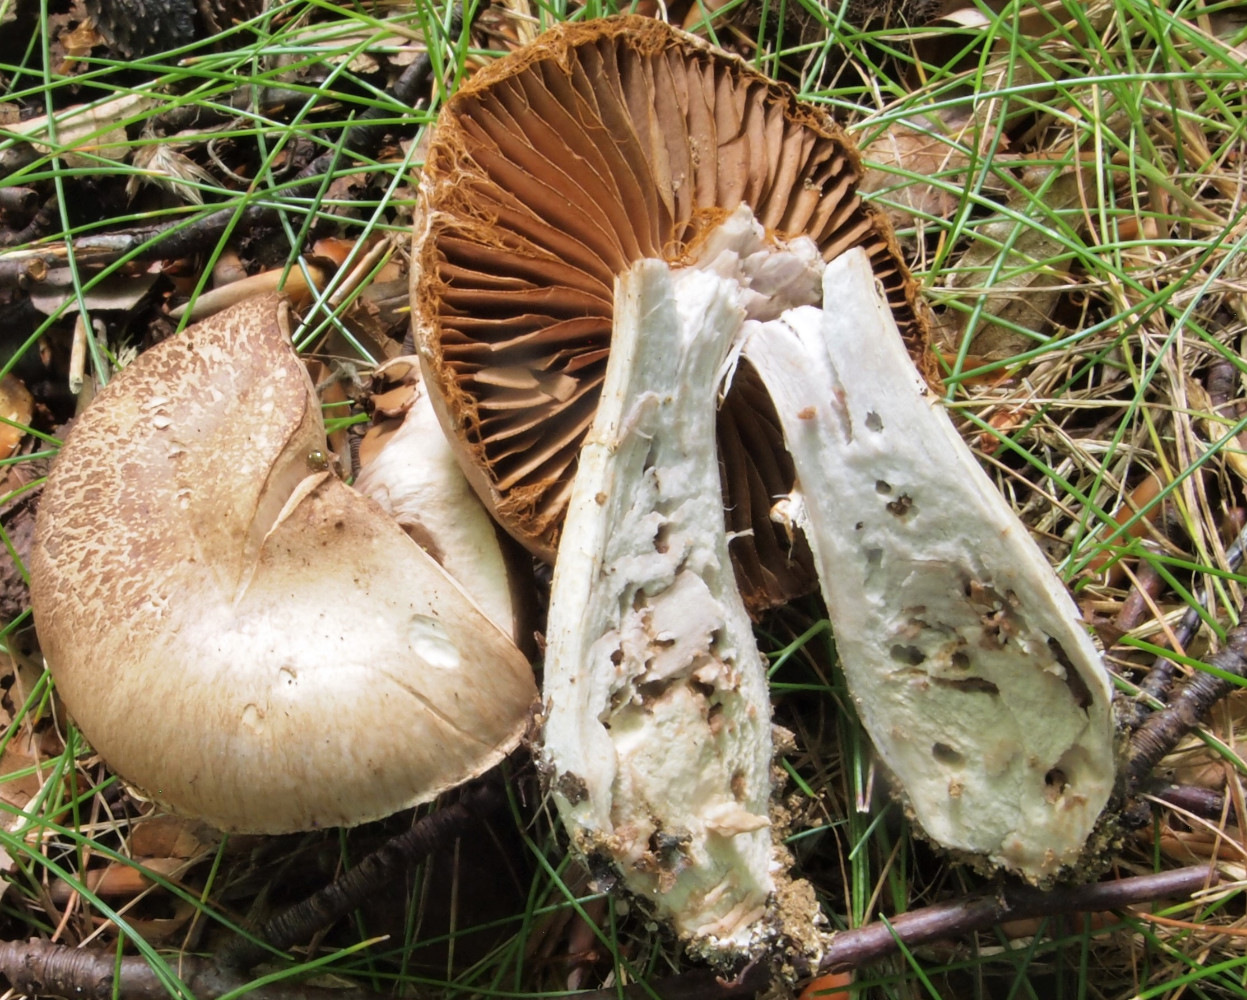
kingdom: Fungi
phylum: Basidiomycota
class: Agaricomycetes
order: Agaricales
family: Cortinariaceae
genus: Cortinarius
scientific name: Cortinarius torvus
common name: champignonagtig slørhat
